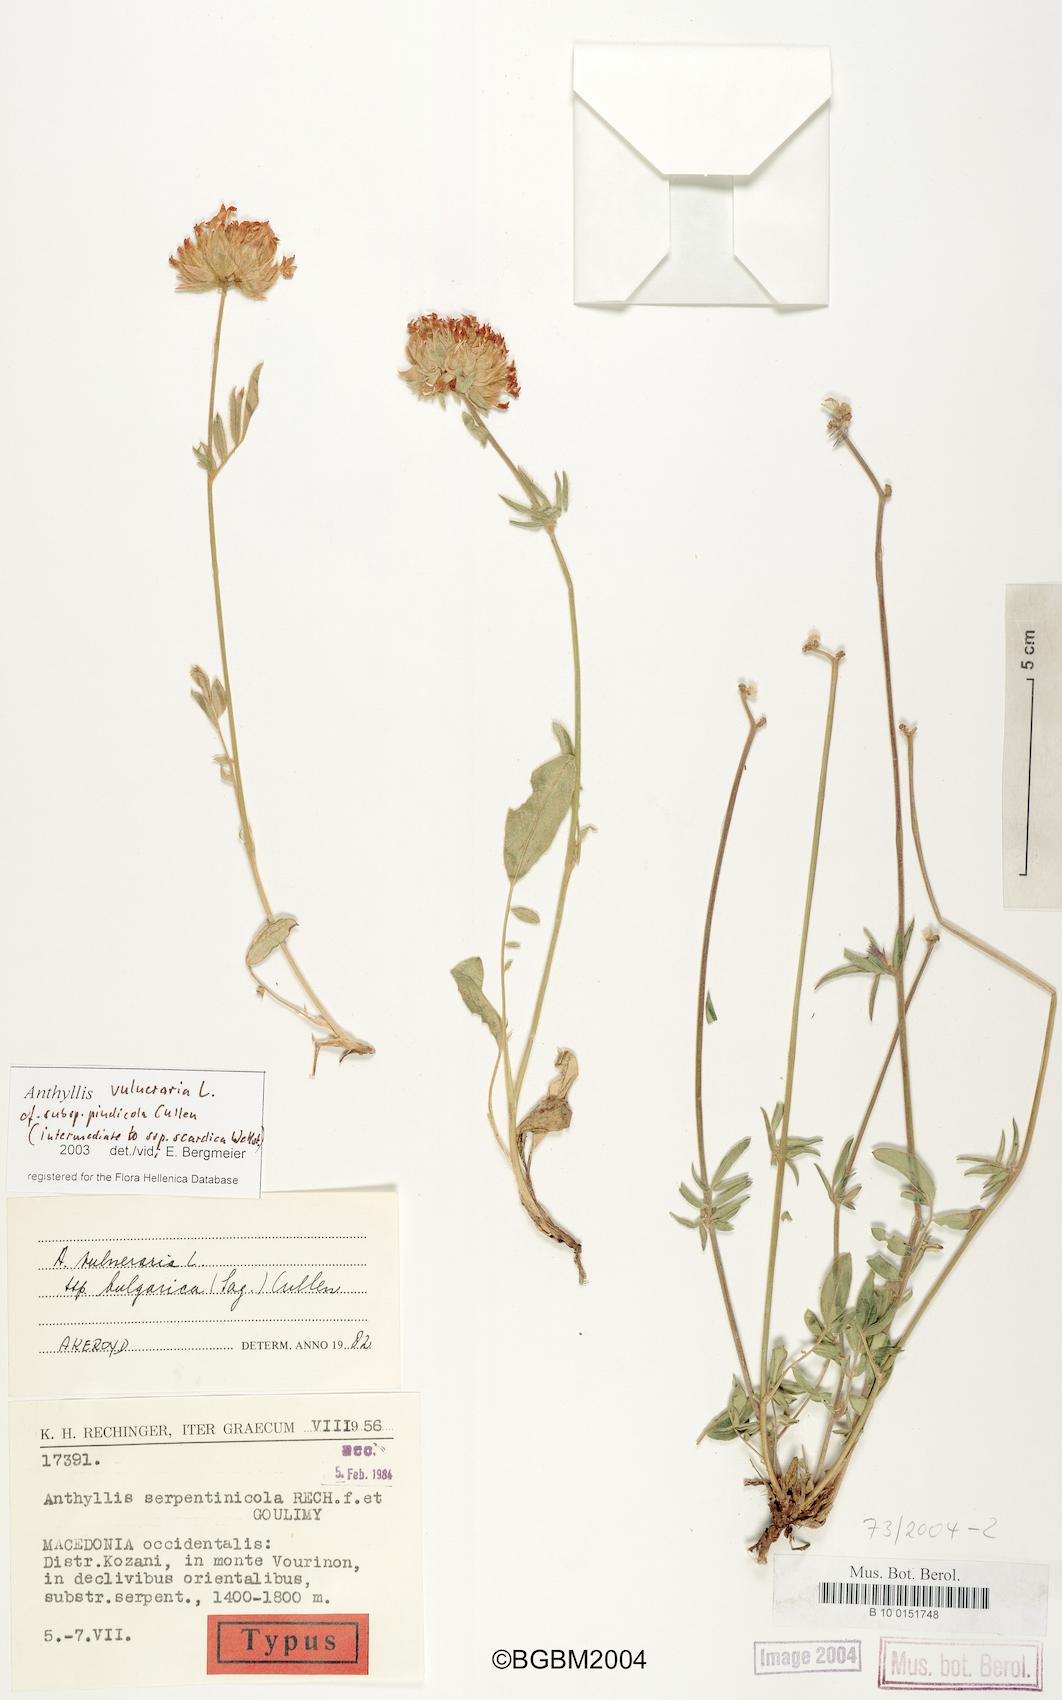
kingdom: Plantae
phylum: Tracheophyta
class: Magnoliopsida
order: Fabales
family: Fabaceae
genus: Anthyllis
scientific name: Anthyllis vulneraria
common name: Kidney vetch
